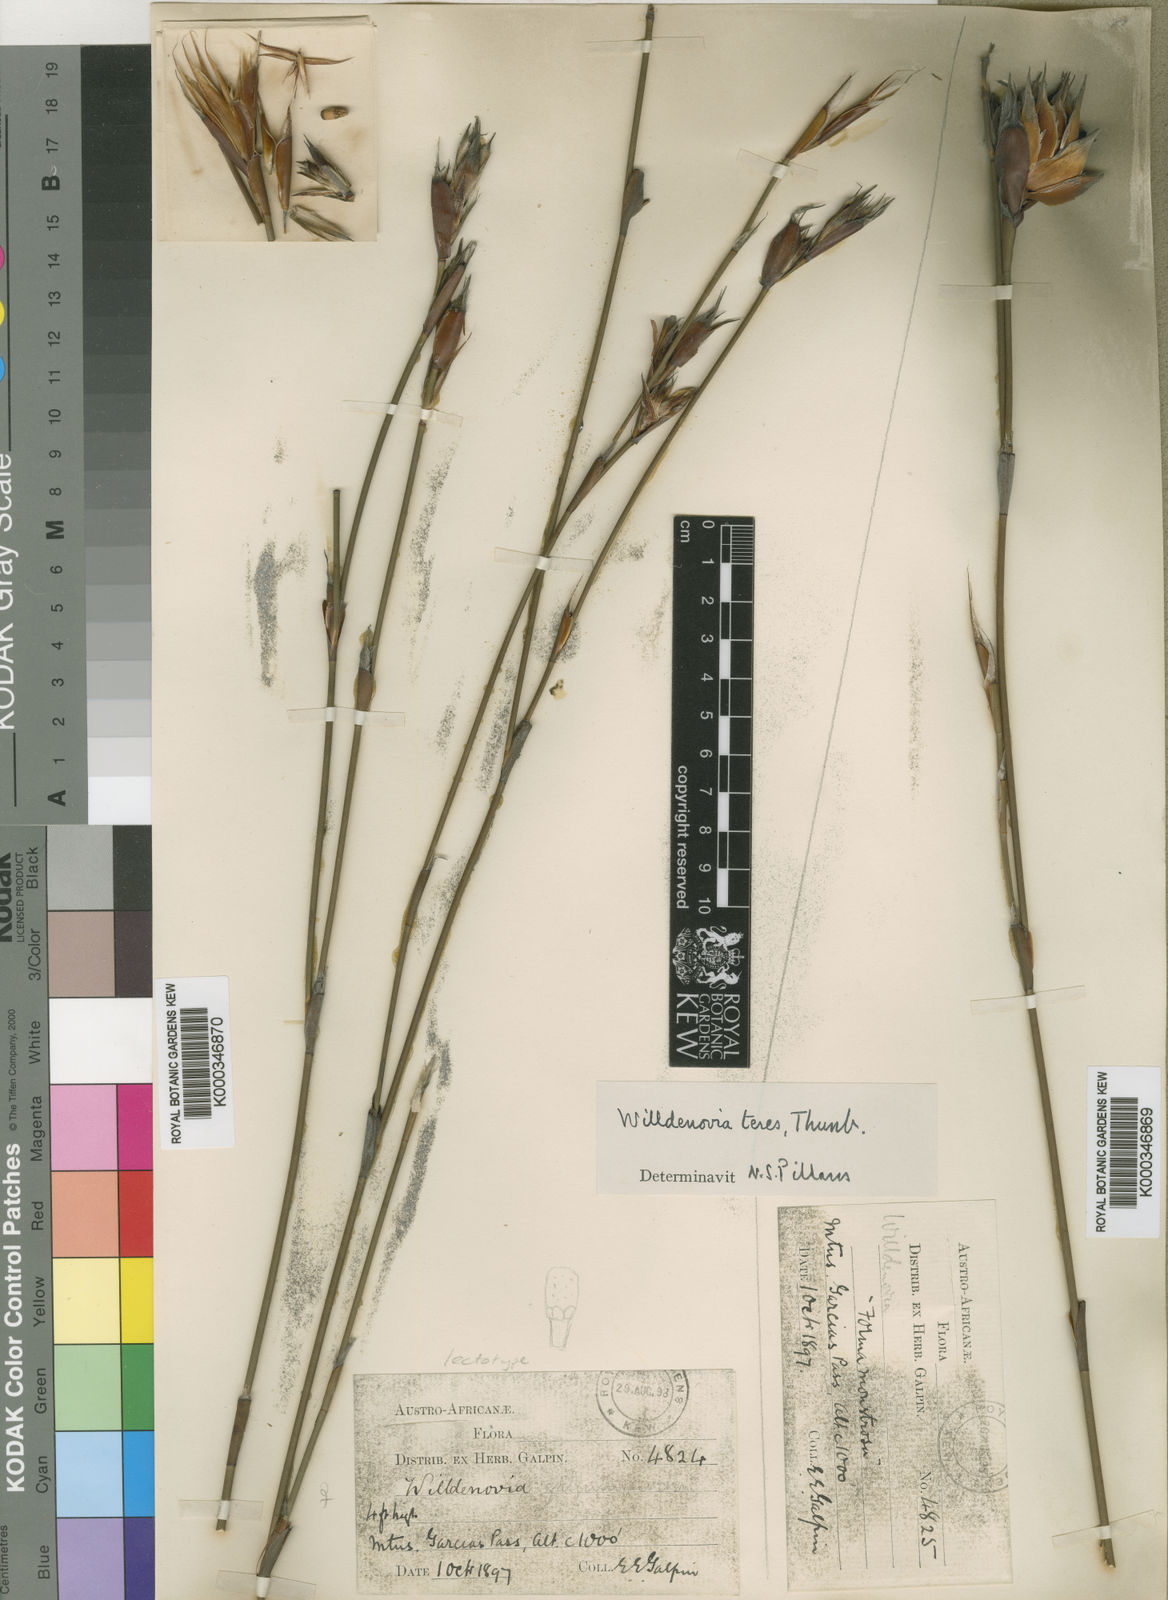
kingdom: Plantae
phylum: Tracheophyta
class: Liliopsida
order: Poales
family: Restionaceae
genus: Willdenowia
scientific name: Willdenowia teres
